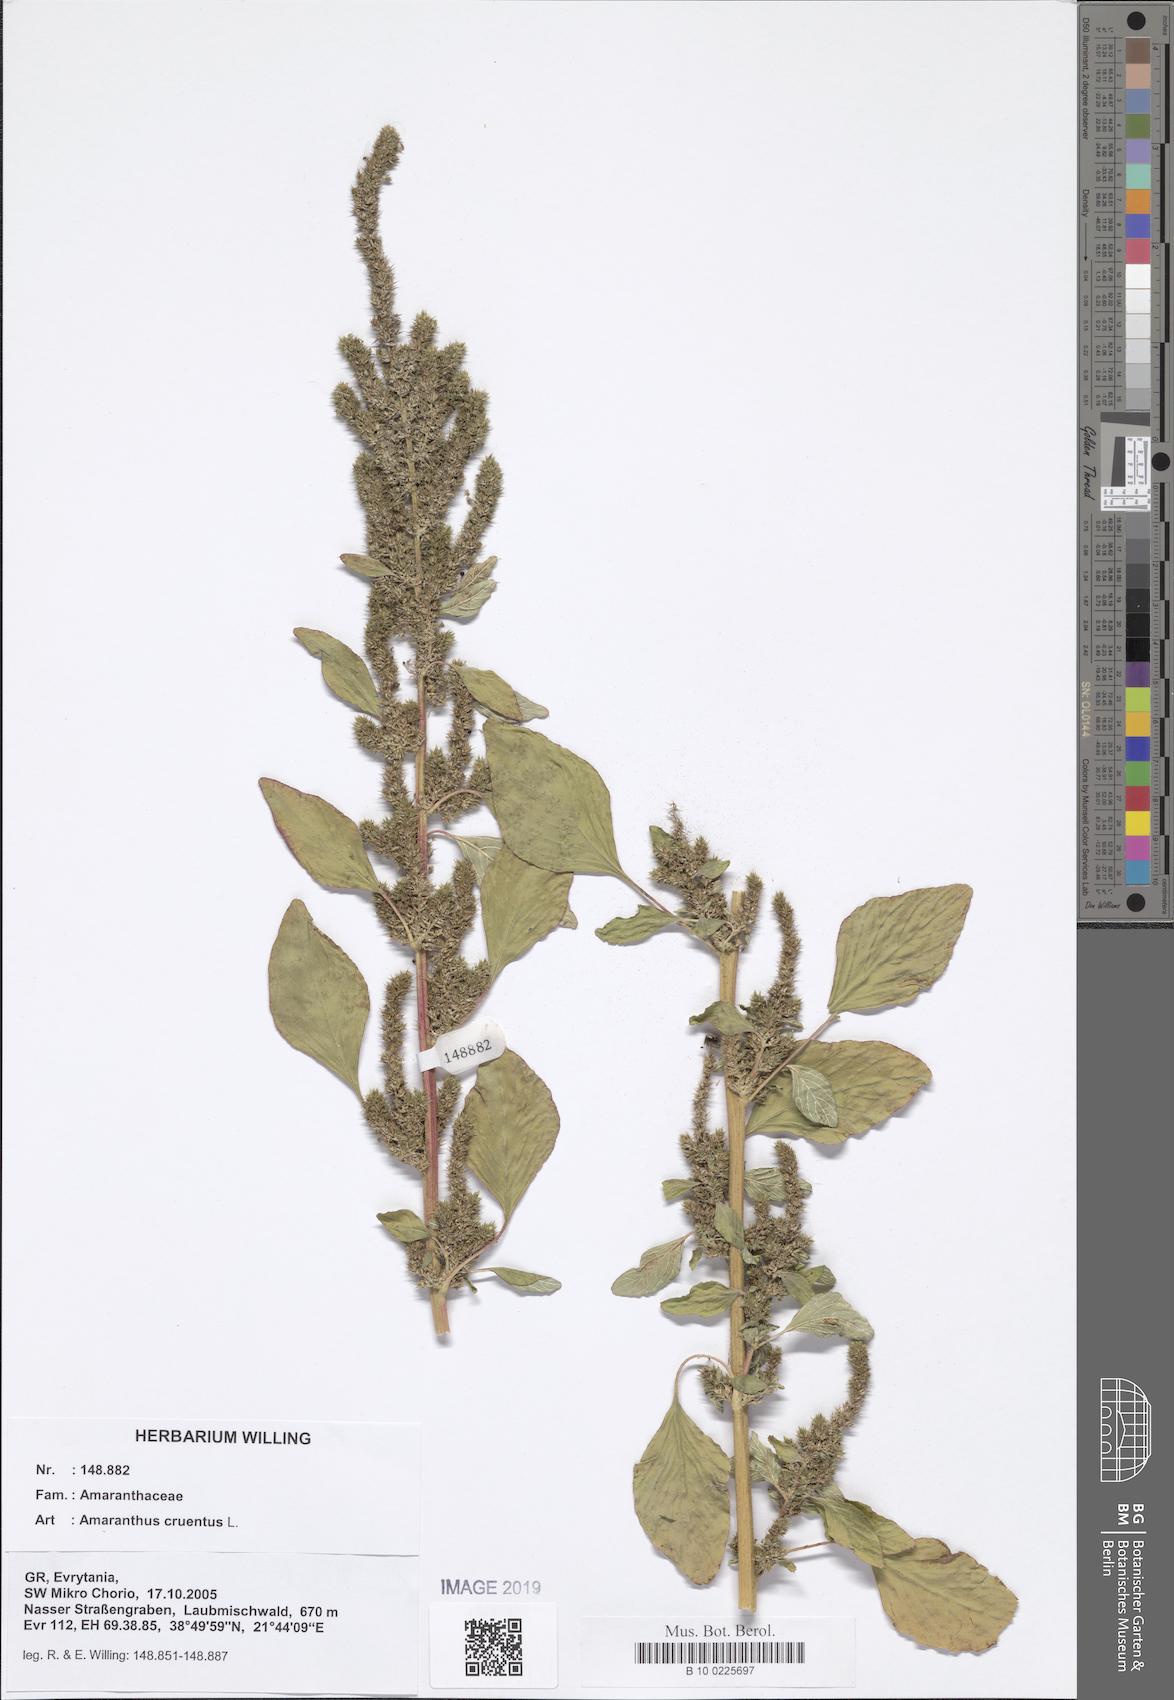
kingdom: Plantae
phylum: Tracheophyta
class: Magnoliopsida
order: Caryophyllales
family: Amaranthaceae
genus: Amaranthus
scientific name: Amaranthus cruentus
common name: Purple amaranth
